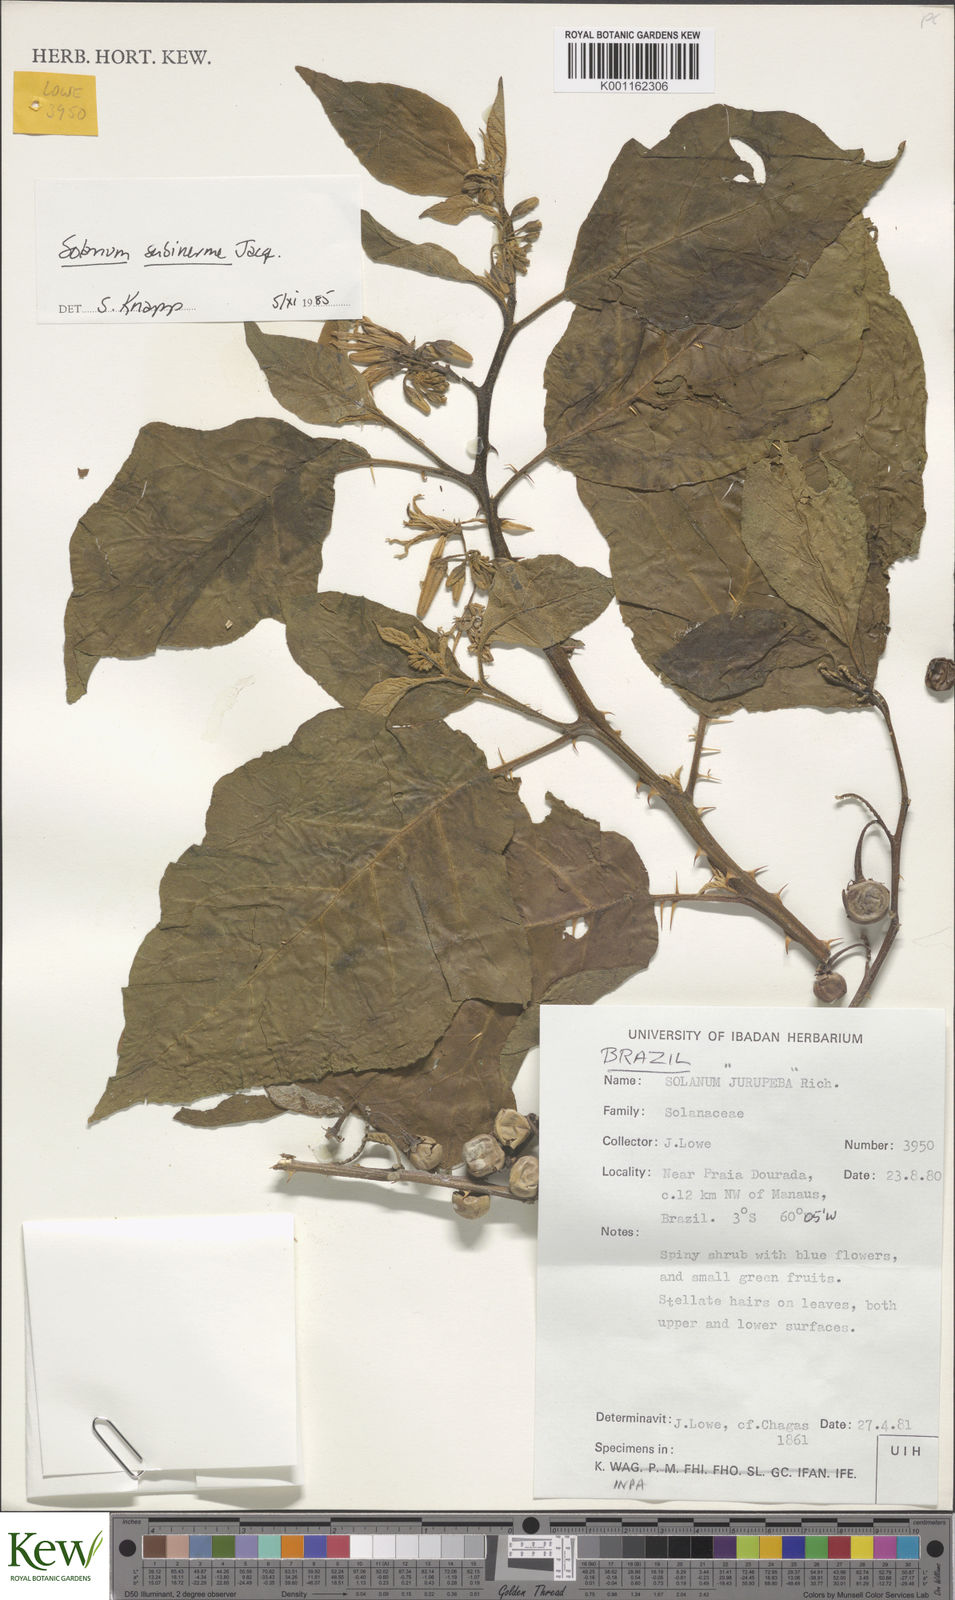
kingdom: Plantae
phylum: Tracheophyta
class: Magnoliopsida
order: Solanales
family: Solanaceae
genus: Solanum
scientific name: Solanum subinerme
